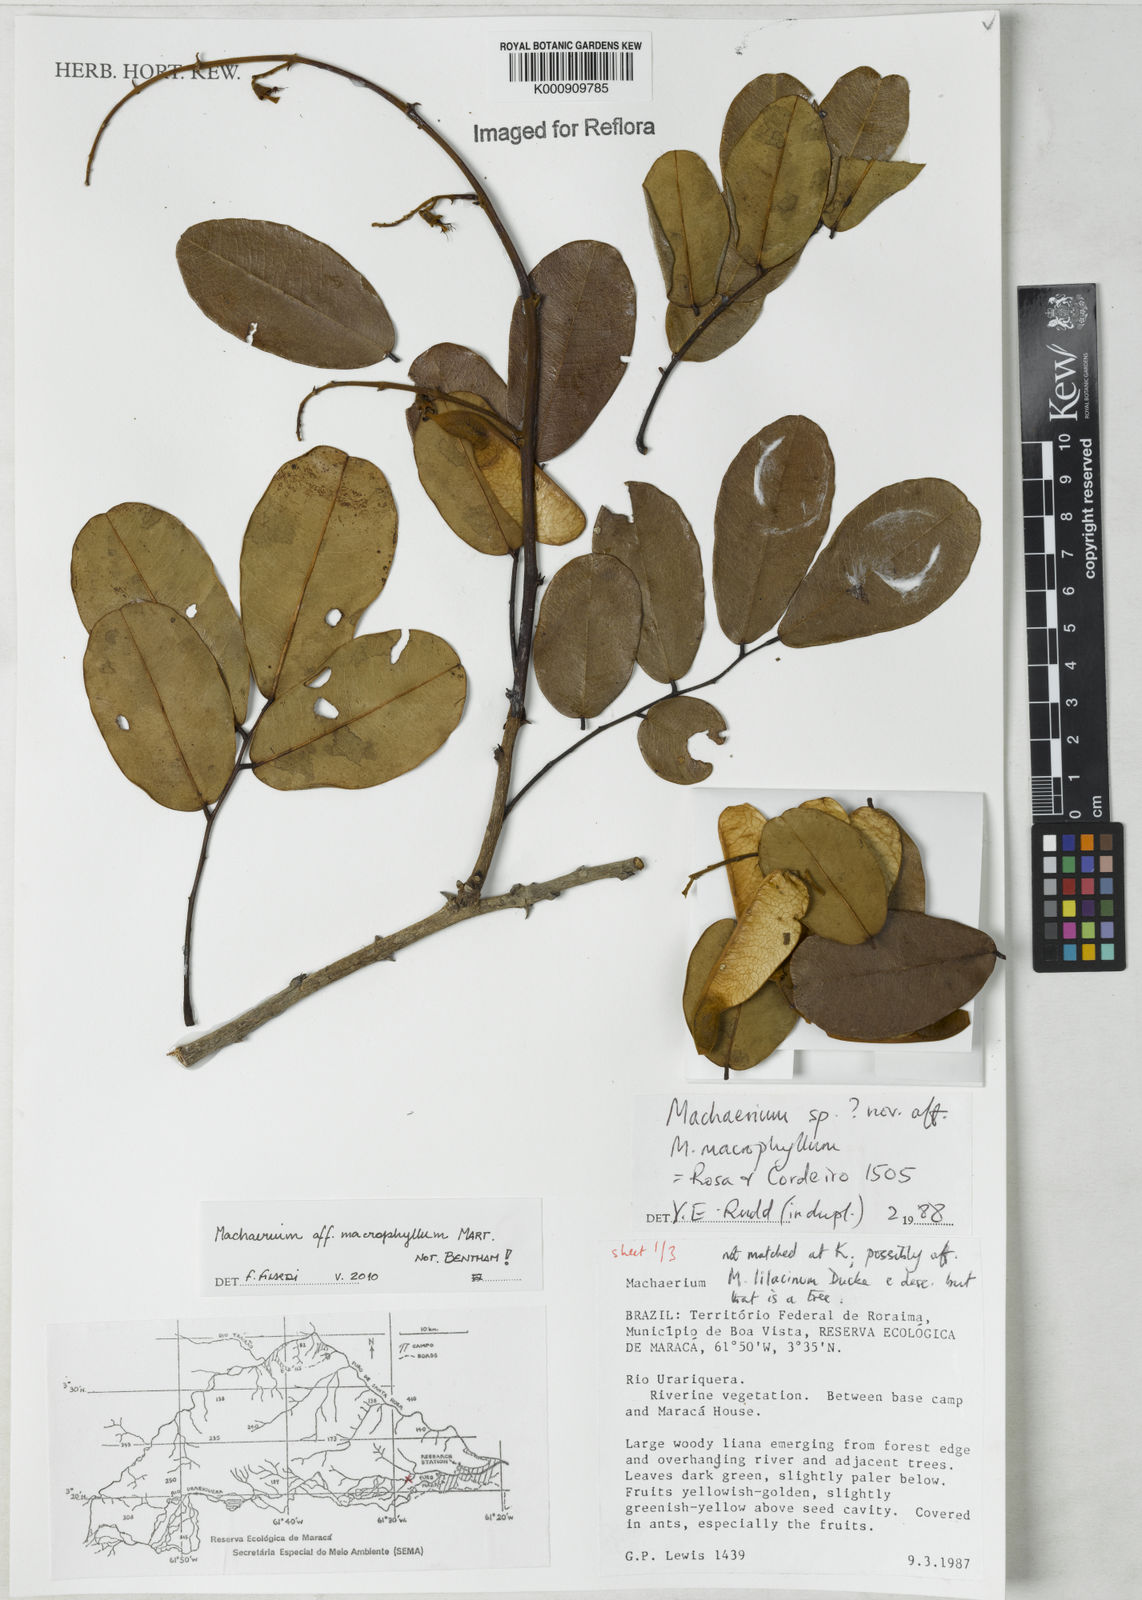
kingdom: Plantae
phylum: Tracheophyta
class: Magnoliopsida
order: Fabales
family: Fabaceae
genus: Machaerium
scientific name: Machaerium macrophyllum
